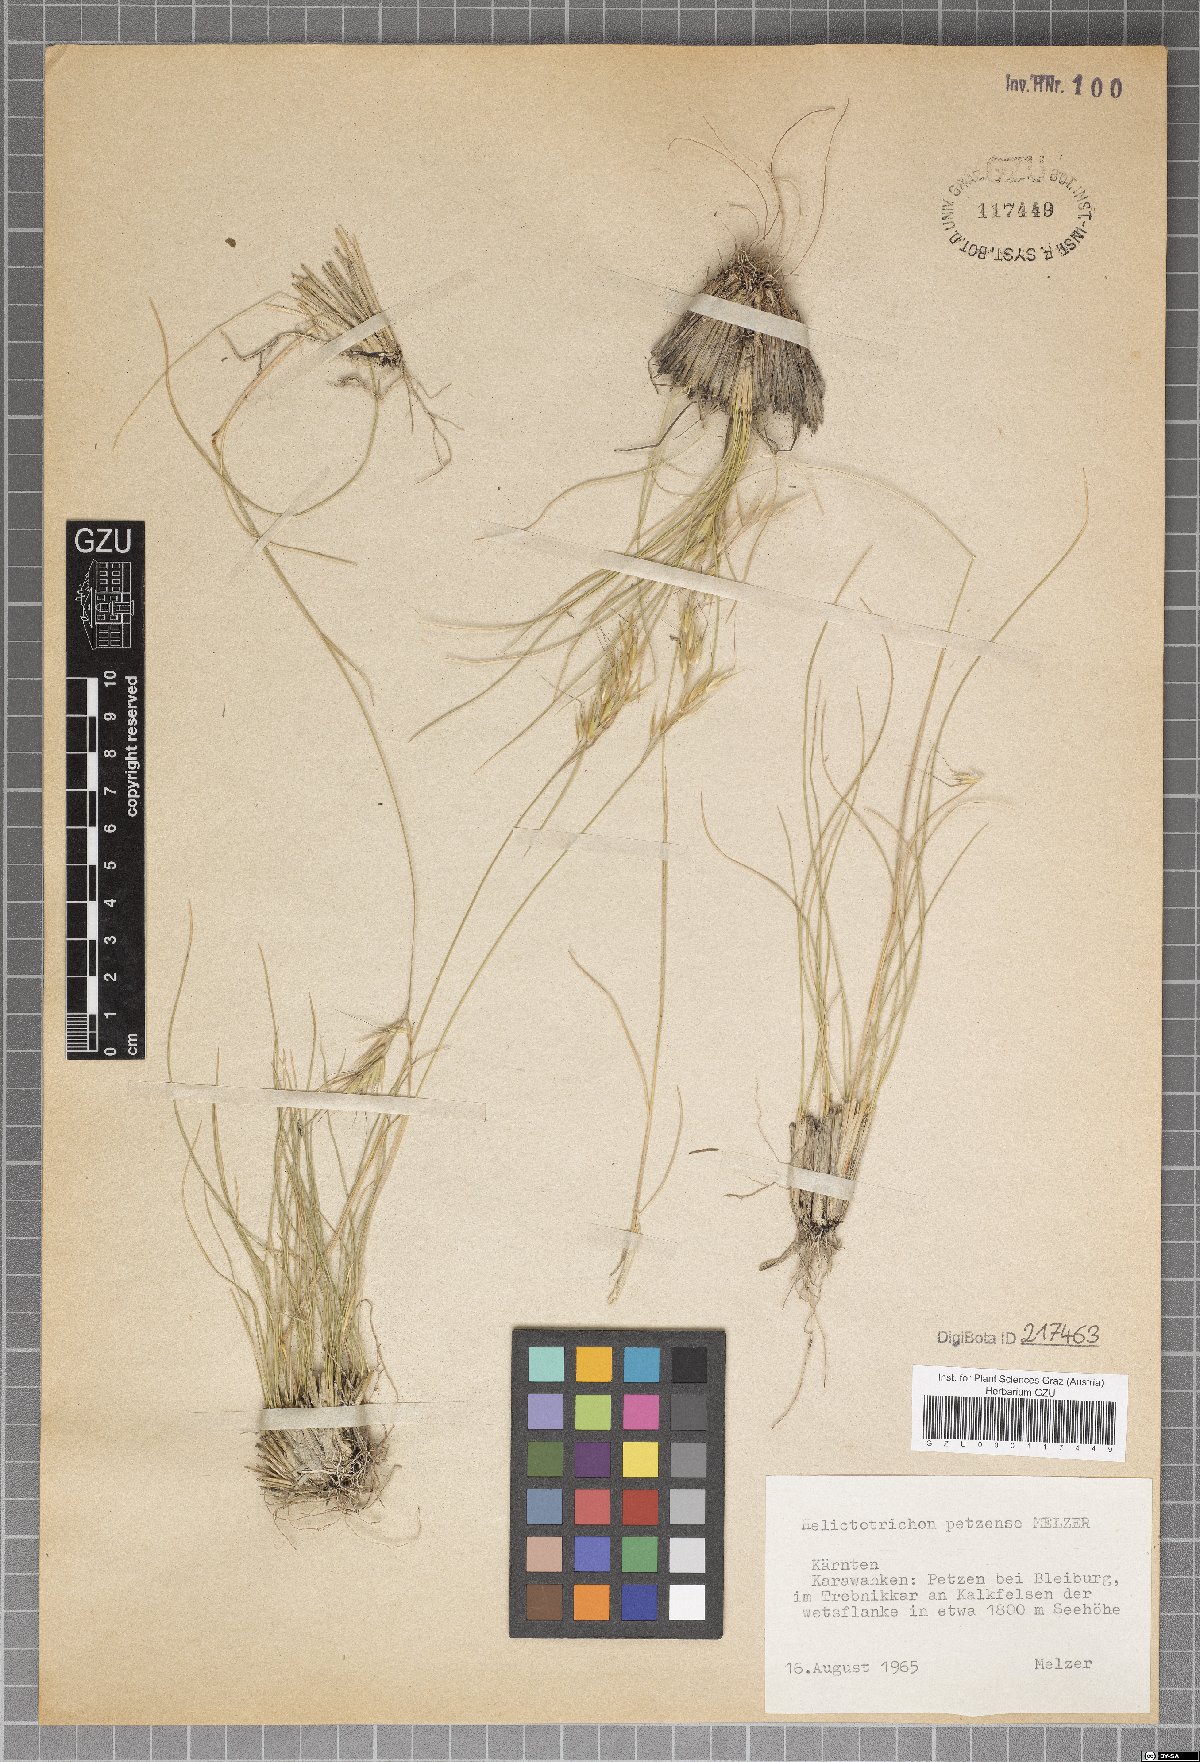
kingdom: Plantae
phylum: Tracheophyta
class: Liliopsida
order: Poales
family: Poaceae
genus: Helictotrichon
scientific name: Helictotrichon petzense
